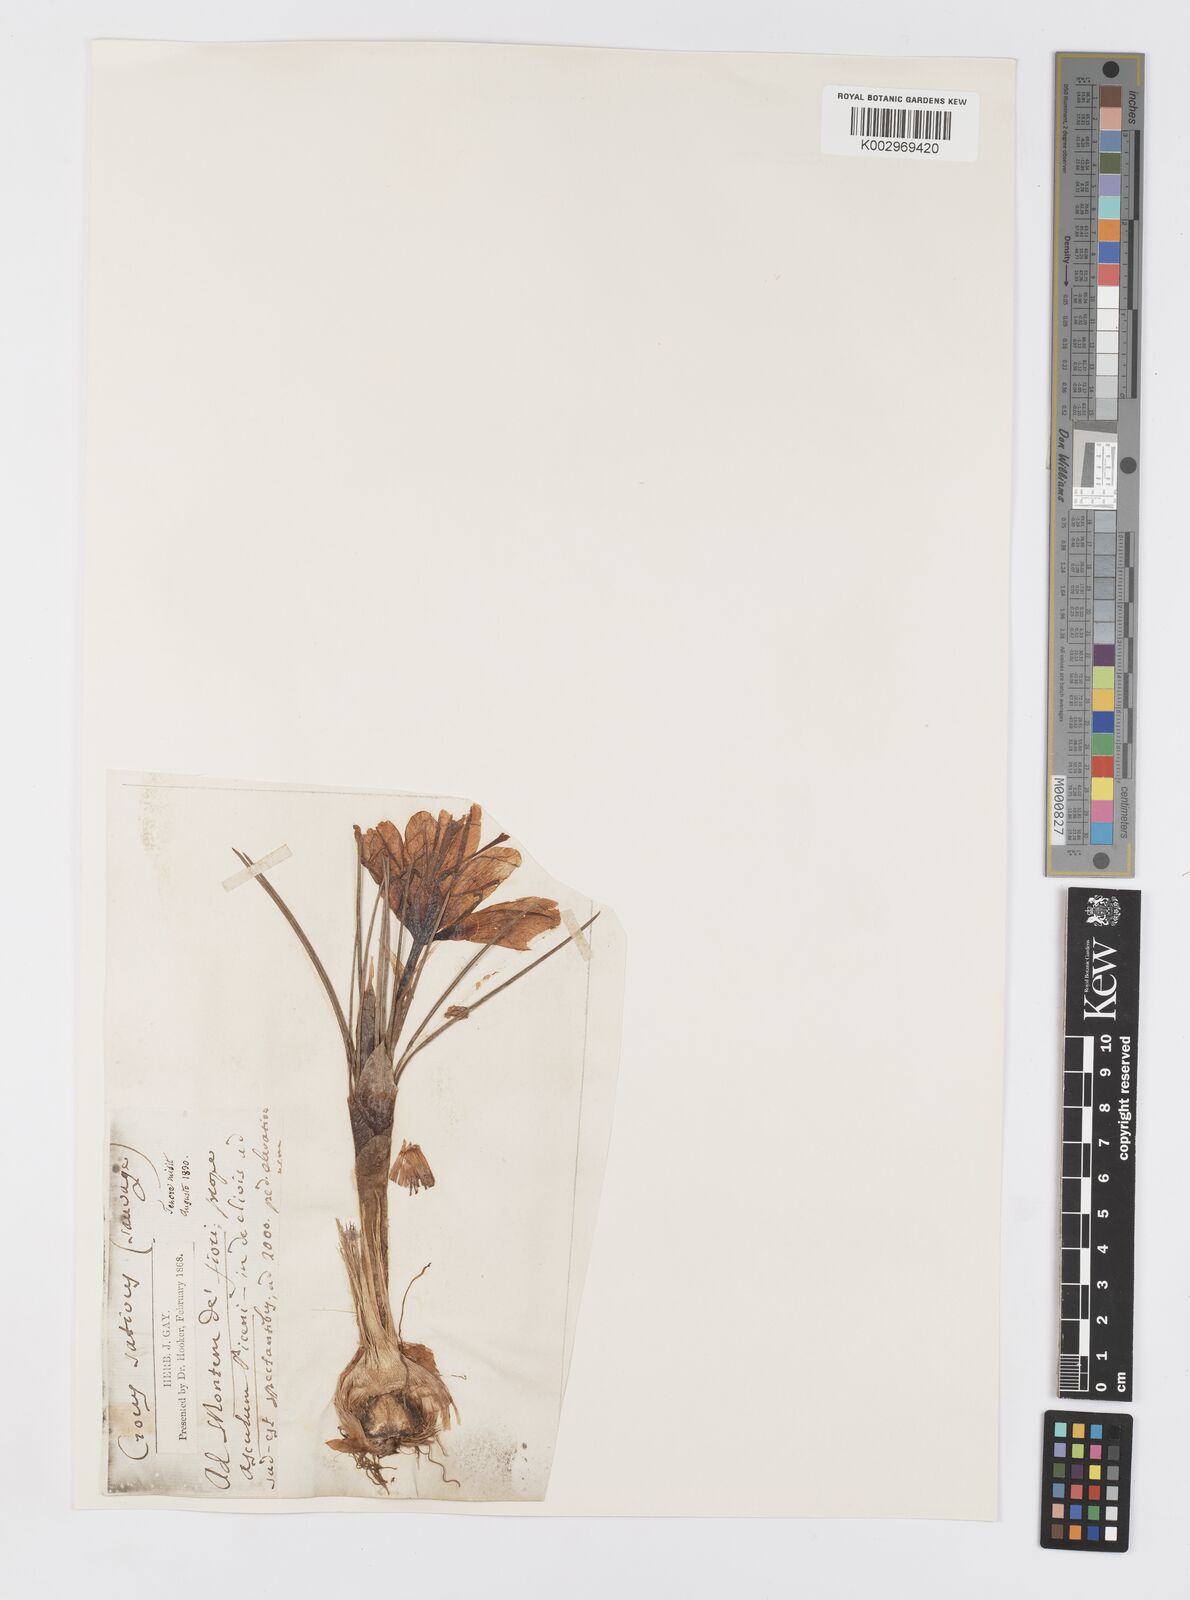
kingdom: Plantae
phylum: Tracheophyta
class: Liliopsida
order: Asparagales
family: Iridaceae
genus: Crocus
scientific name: Crocus sativus
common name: Saffron crocus
